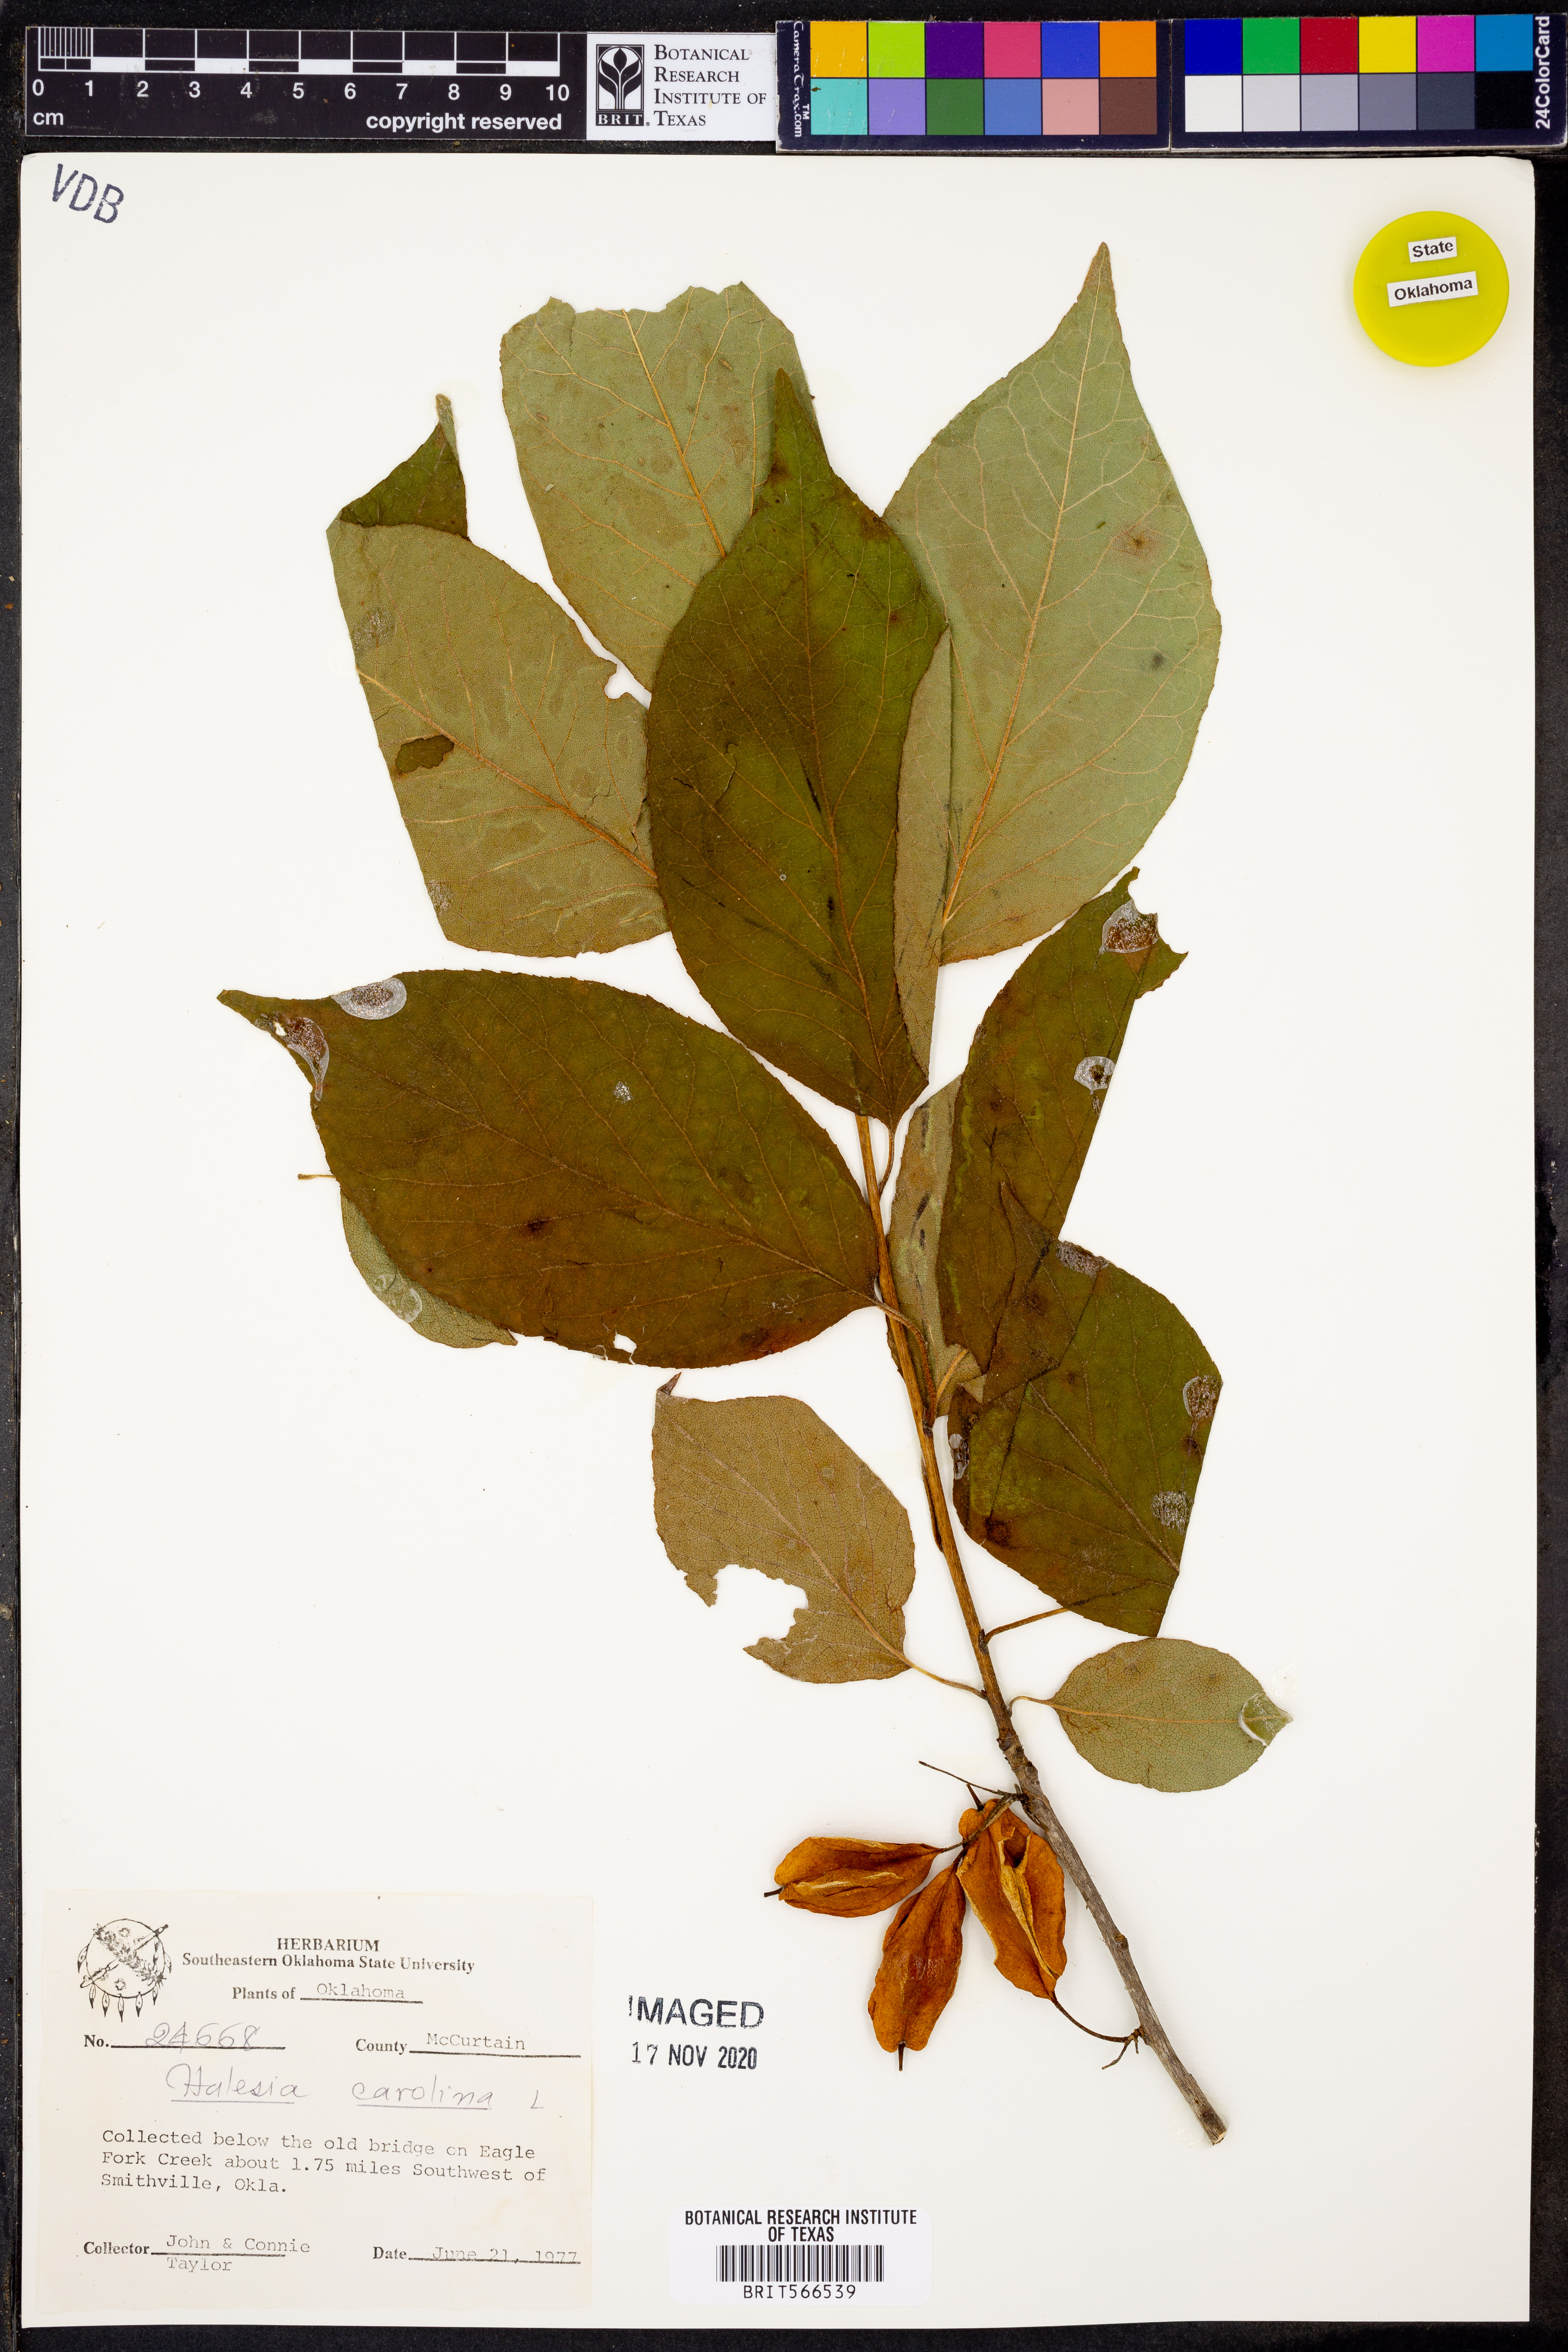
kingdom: Plantae
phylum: Tracheophyta
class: Magnoliopsida
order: Ericales
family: Styracaceae
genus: Halesia
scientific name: Halesia carolina
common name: Carolina silverbell
